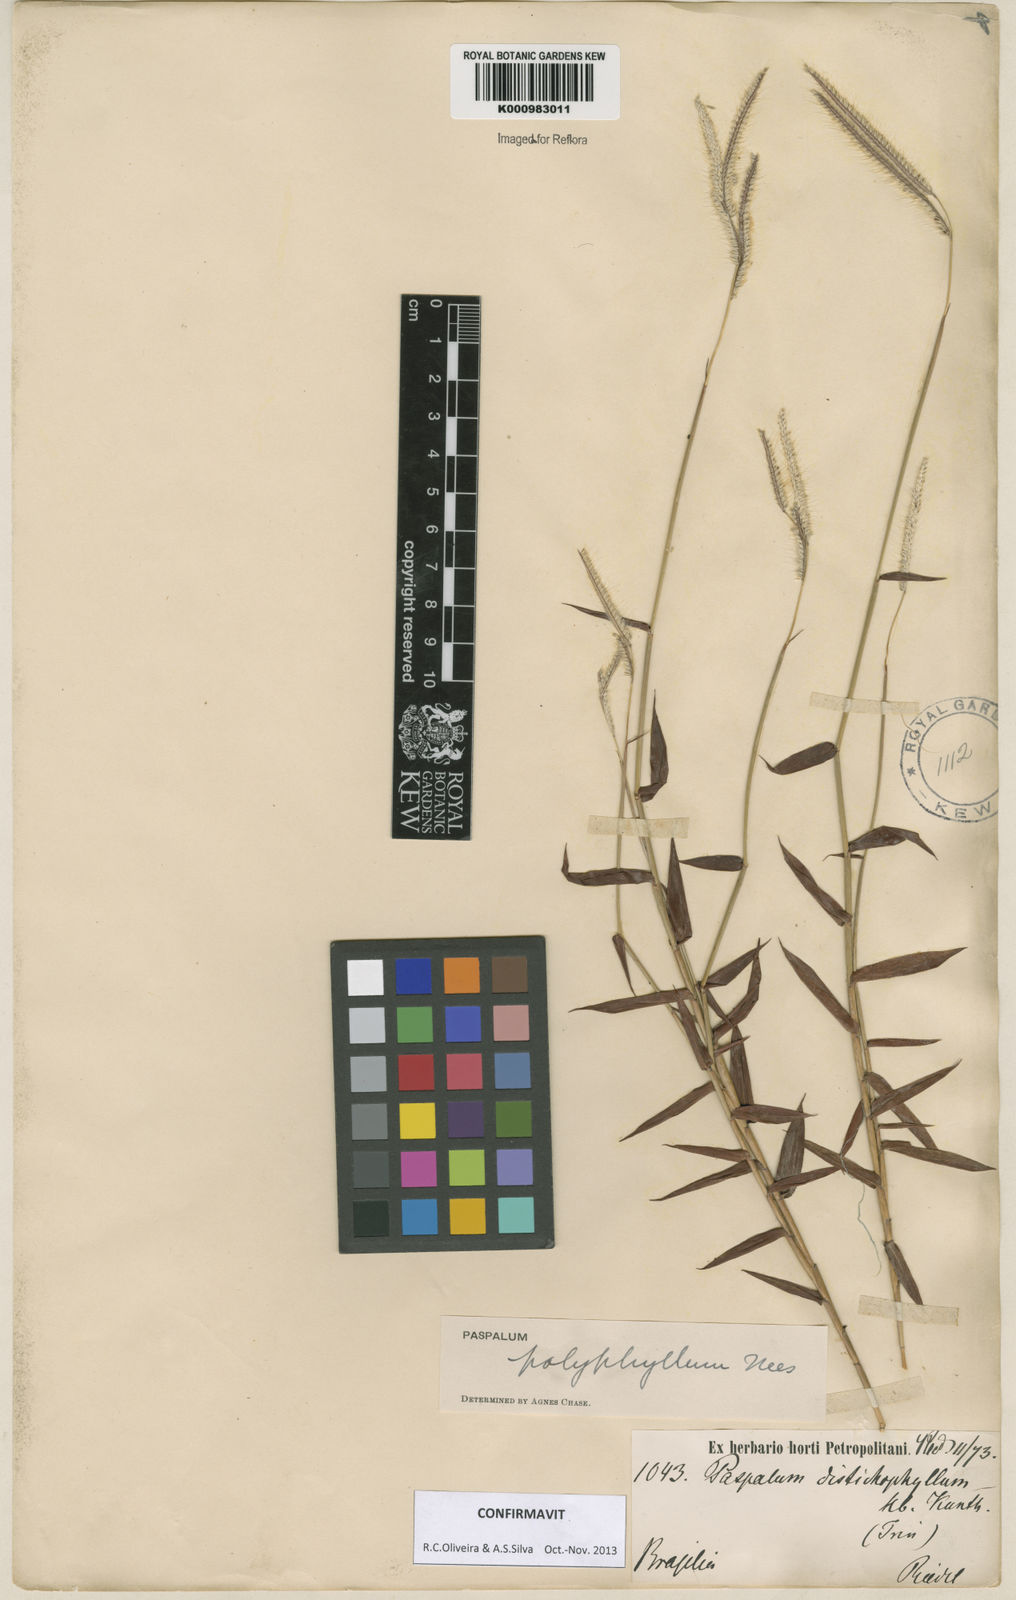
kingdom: Plantae
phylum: Tracheophyta
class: Liliopsida
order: Poales
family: Poaceae
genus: Paspalum
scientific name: Paspalum
